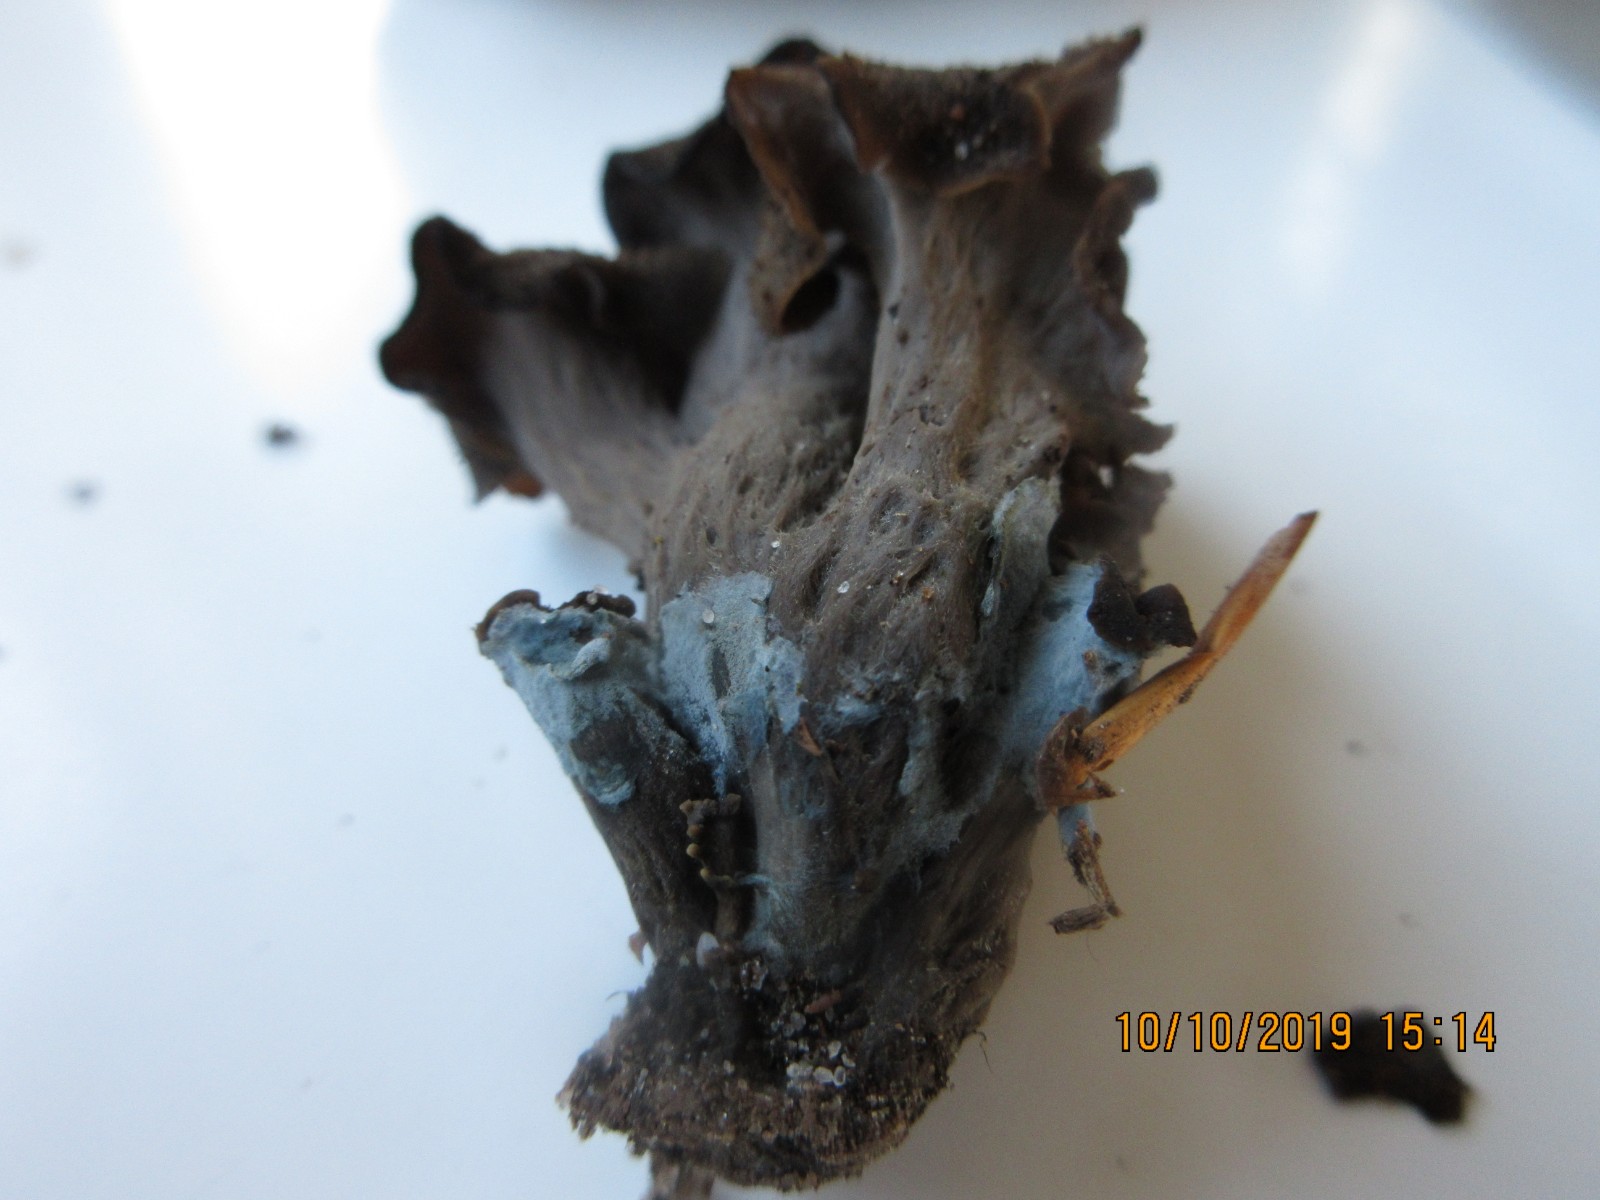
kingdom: Fungi
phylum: Basidiomycota
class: Agaricomycetes
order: Atheliales
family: Atheliaceae
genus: Byssocorticium
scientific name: Byssocorticium
